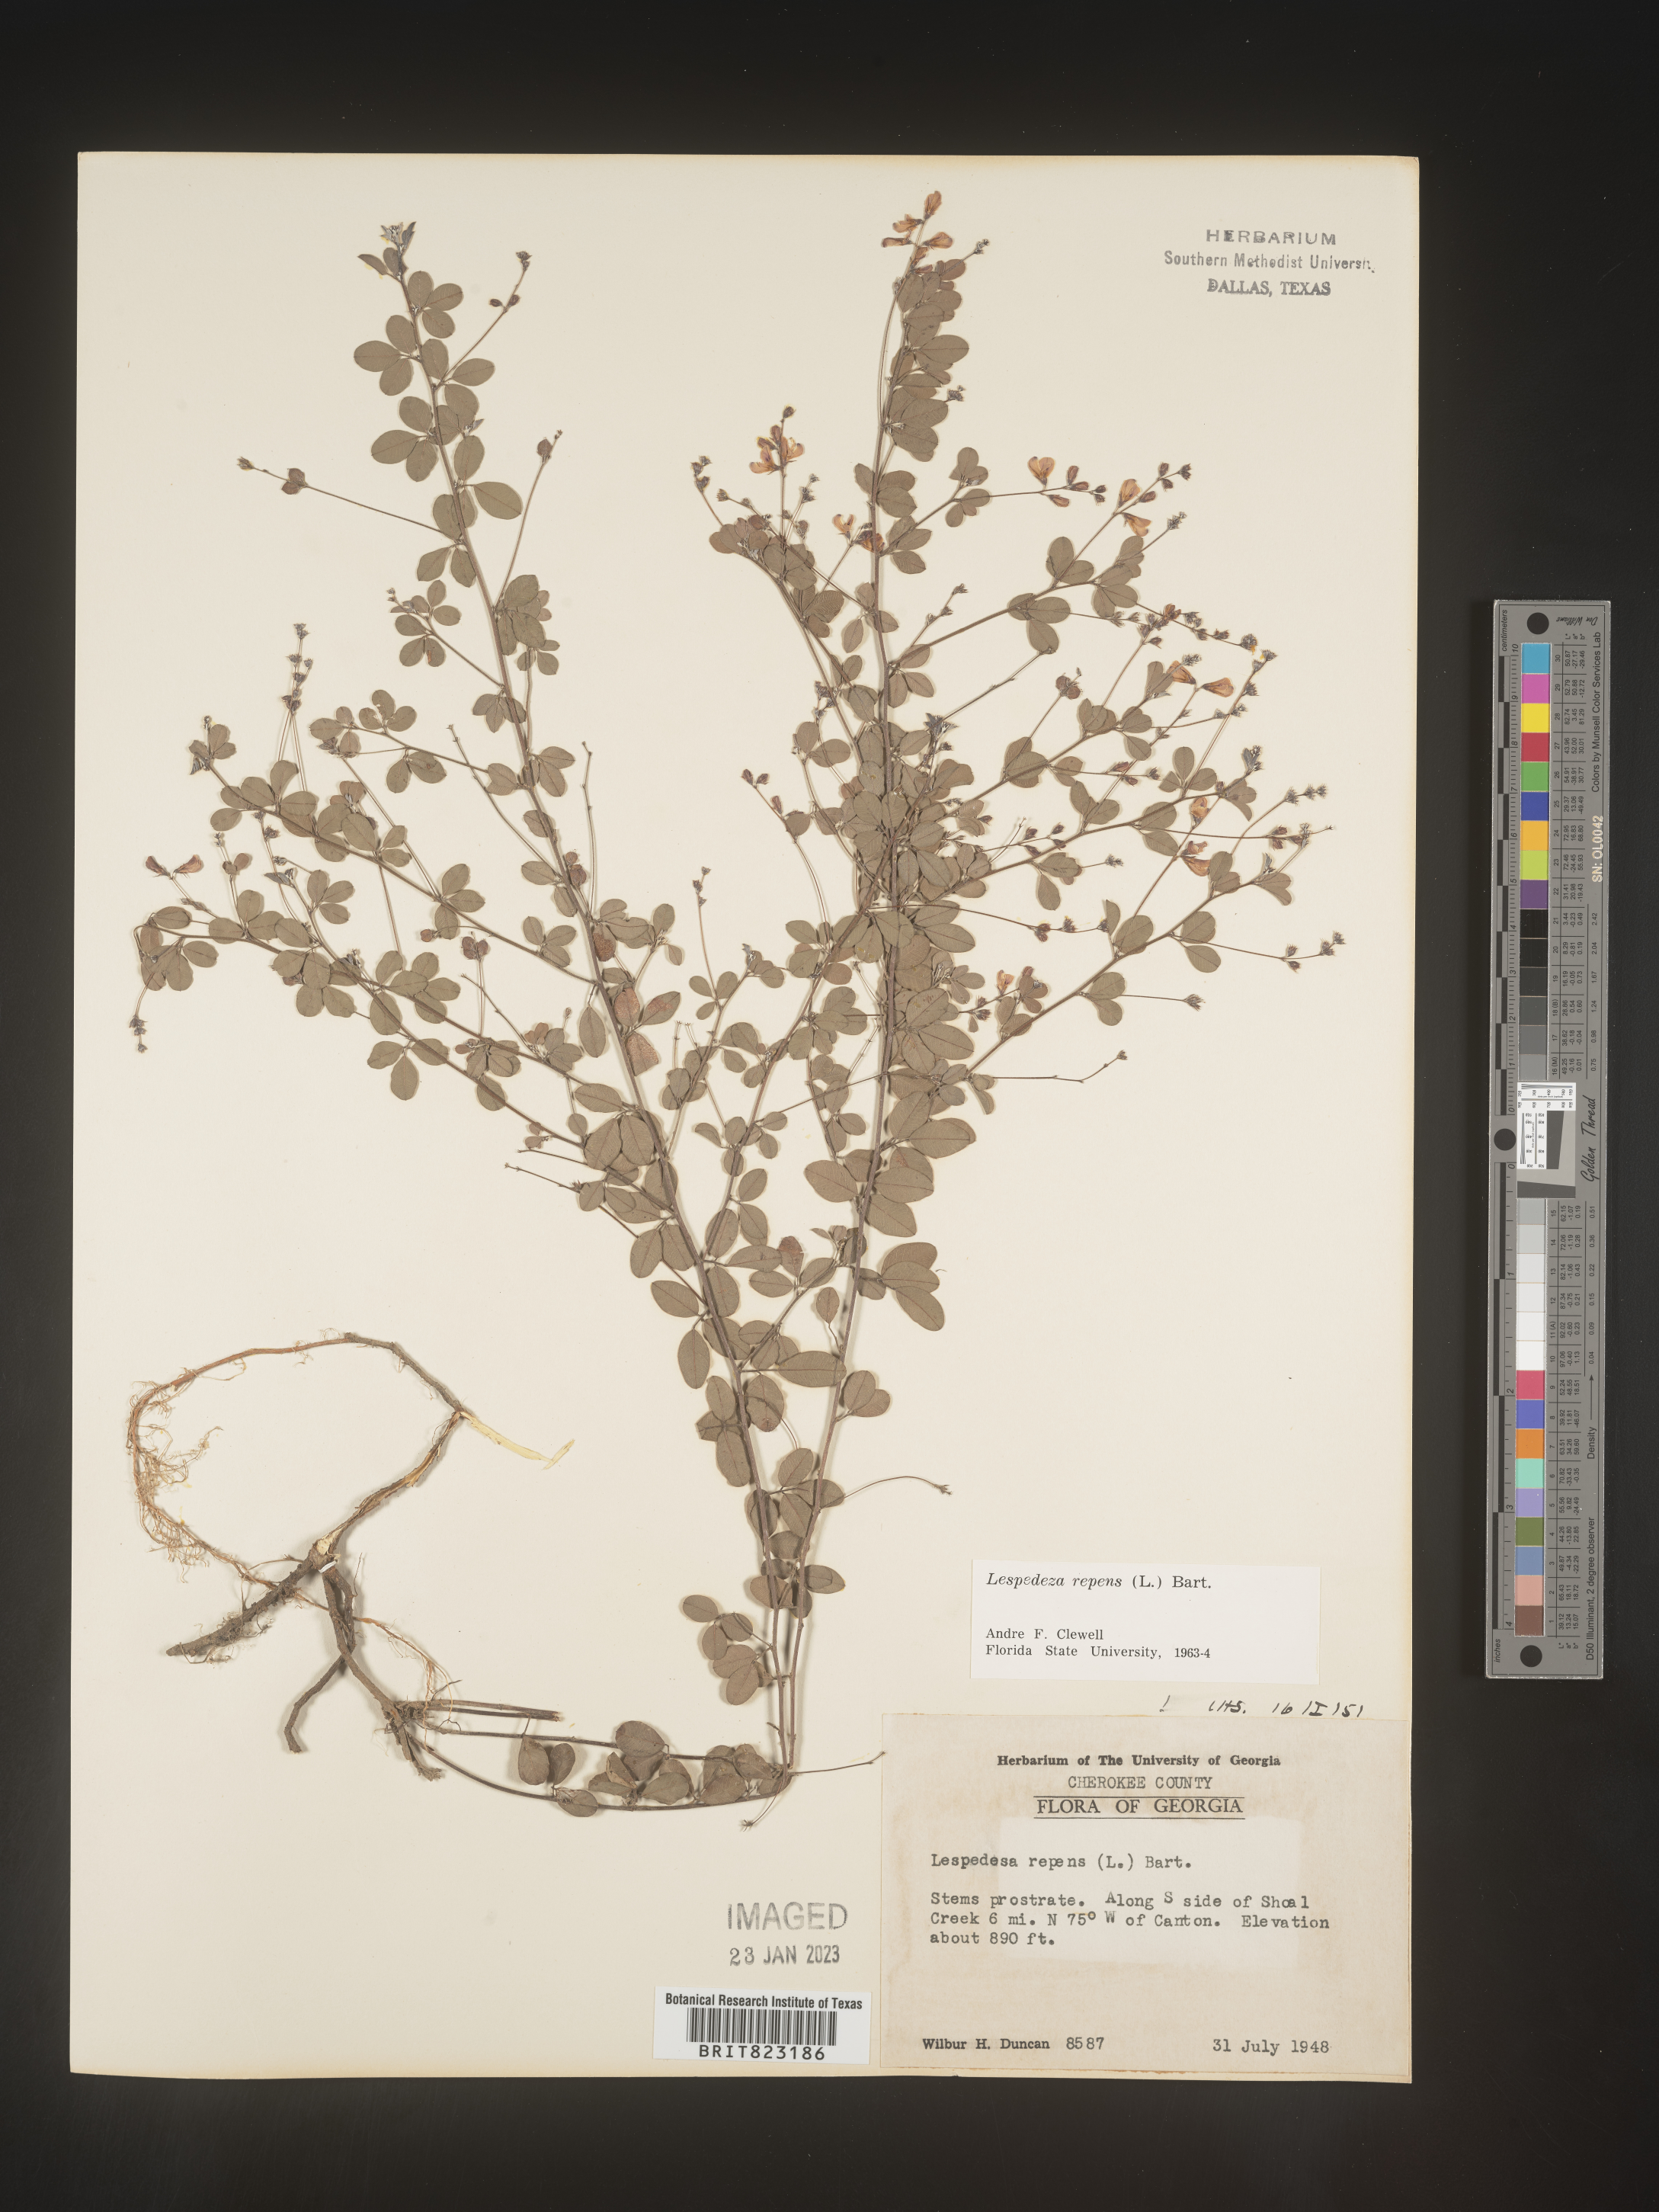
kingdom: Plantae
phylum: Tracheophyta
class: Magnoliopsida
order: Fabales
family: Fabaceae
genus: Lespedeza
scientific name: Lespedeza repens
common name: Creeping bush-clover
